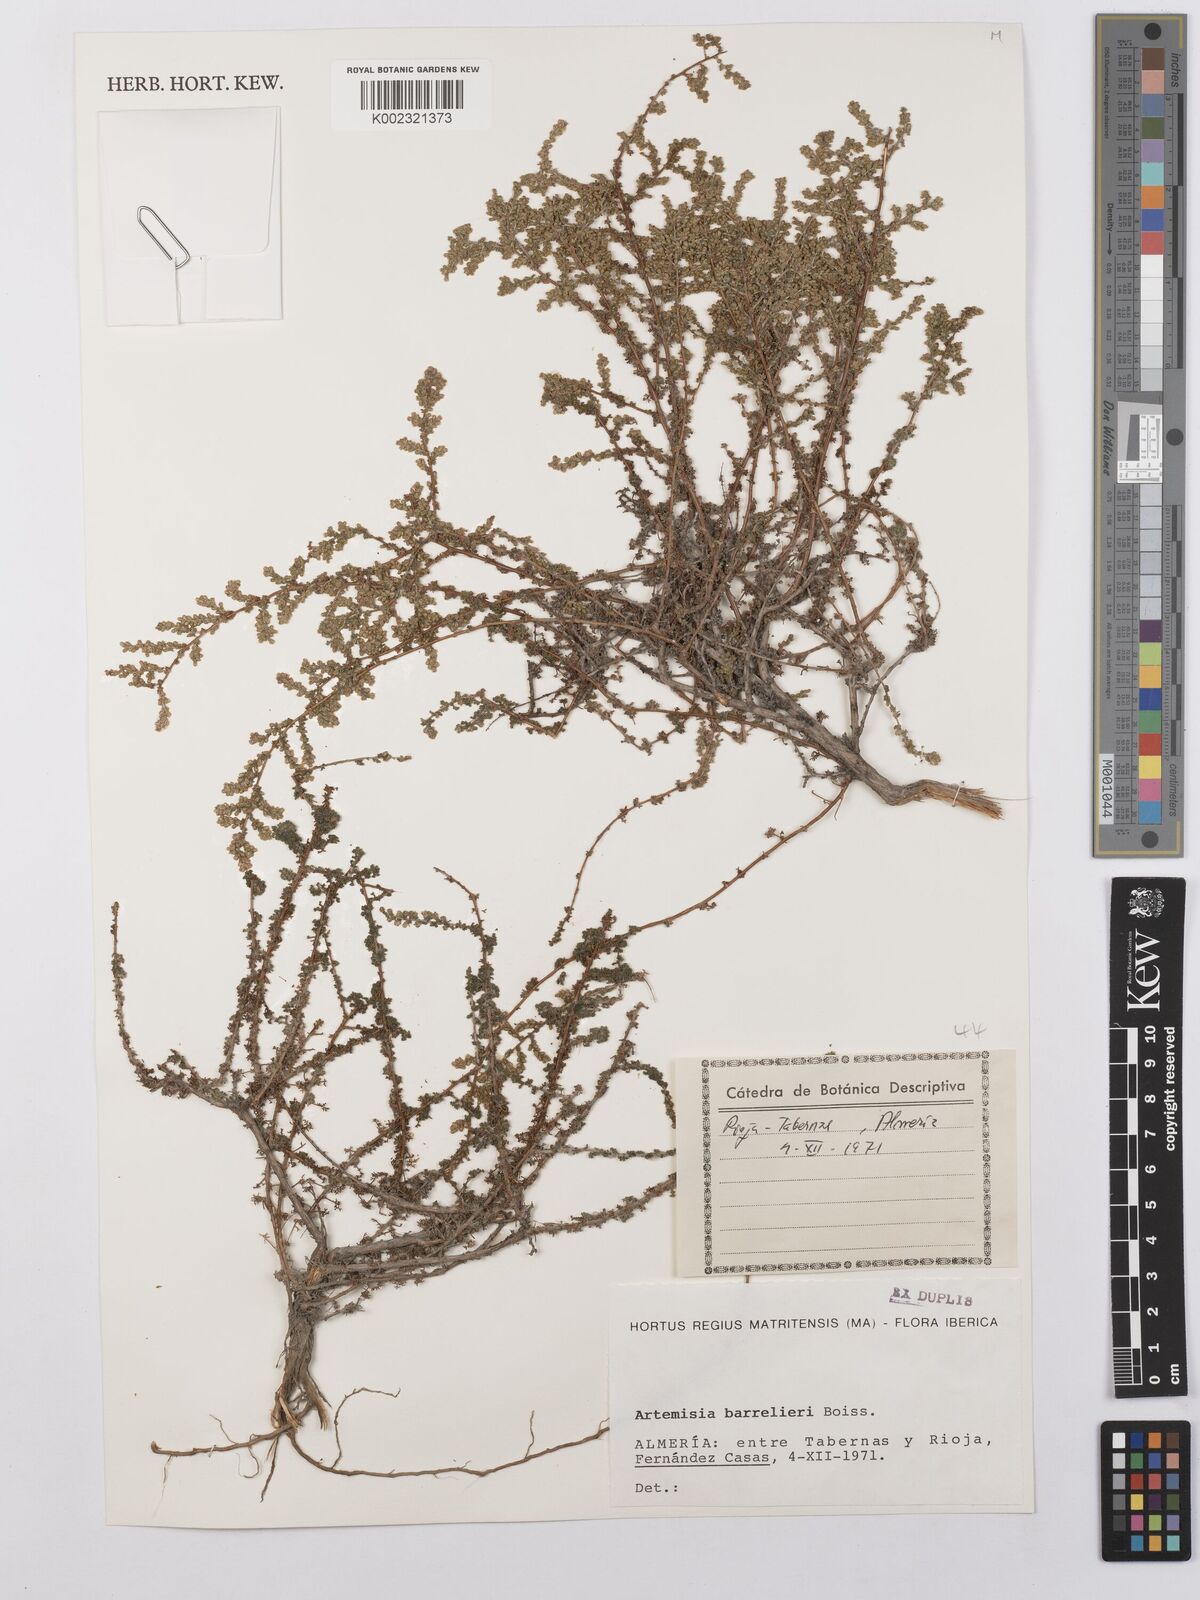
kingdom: Plantae
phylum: Tracheophyta
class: Magnoliopsida
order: Asterales
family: Asteraceae
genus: Artemisia
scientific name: Artemisia barrelieri
